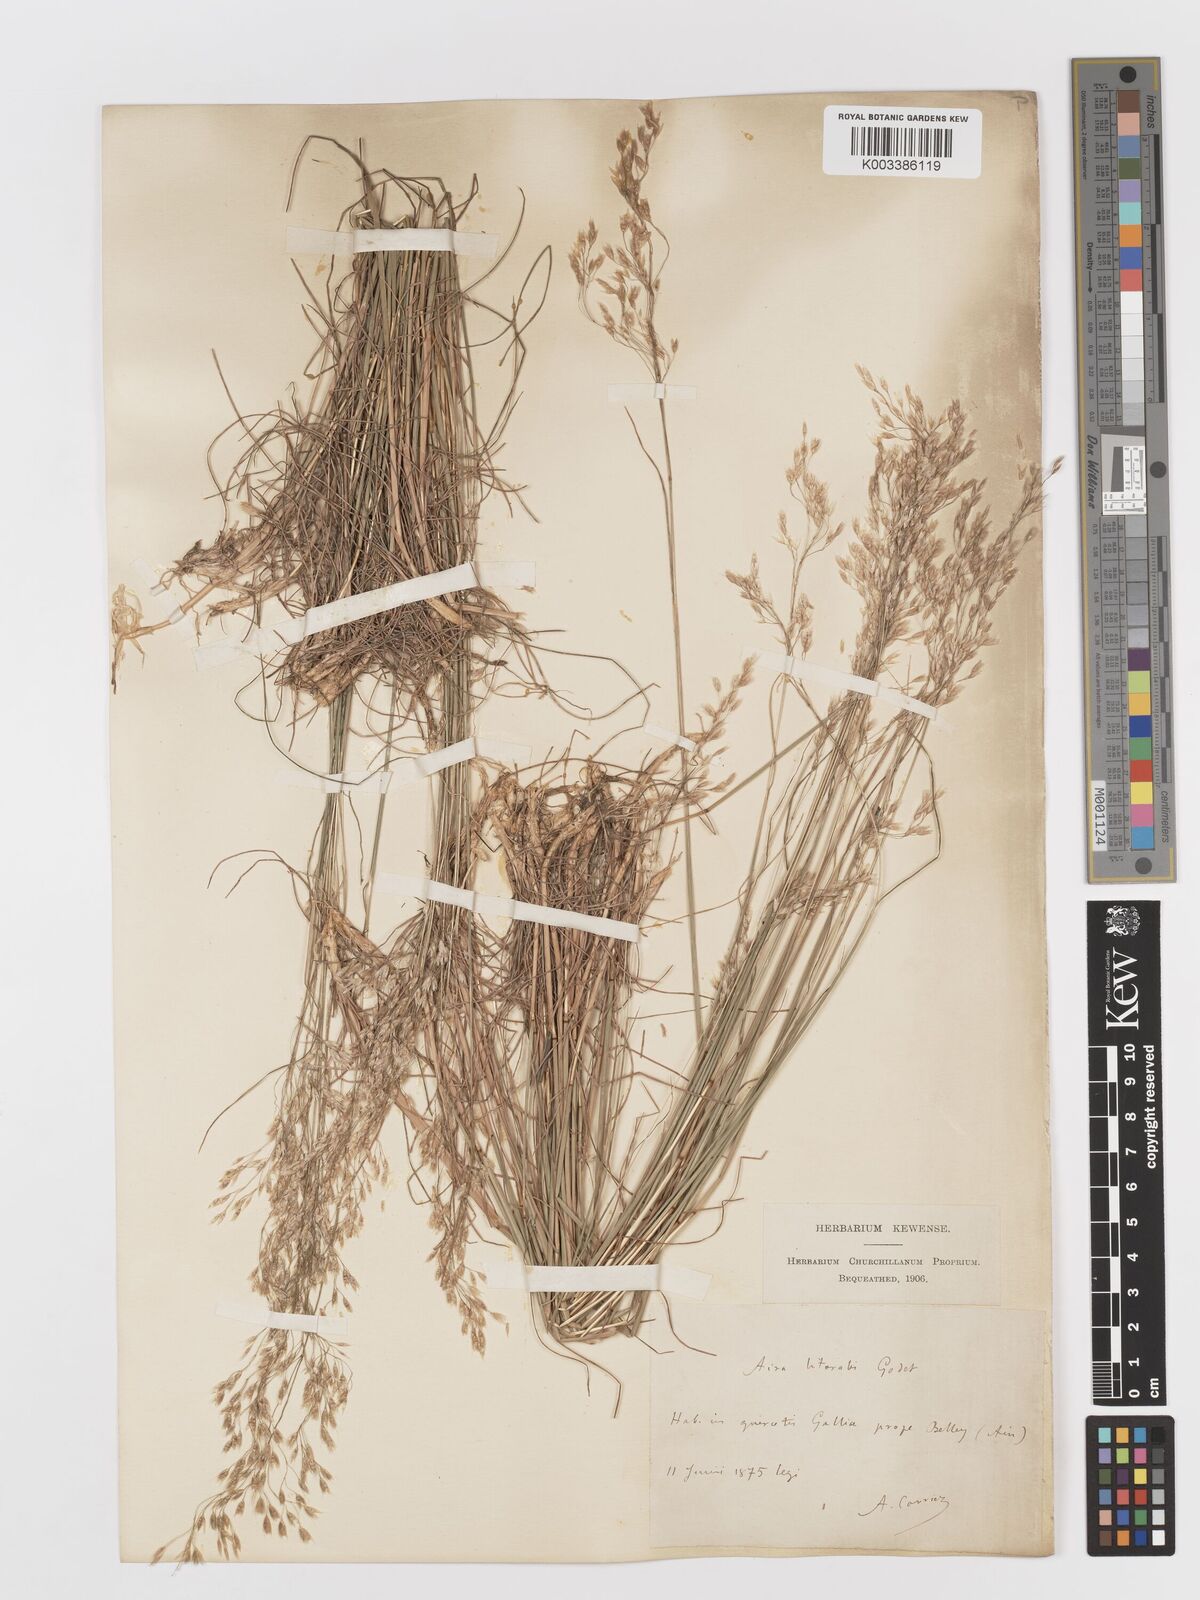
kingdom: Plantae
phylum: Tracheophyta
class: Liliopsida
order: Poales
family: Poaceae
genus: Avenella
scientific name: Avenella flexuosa
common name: Wavy hairgrass
